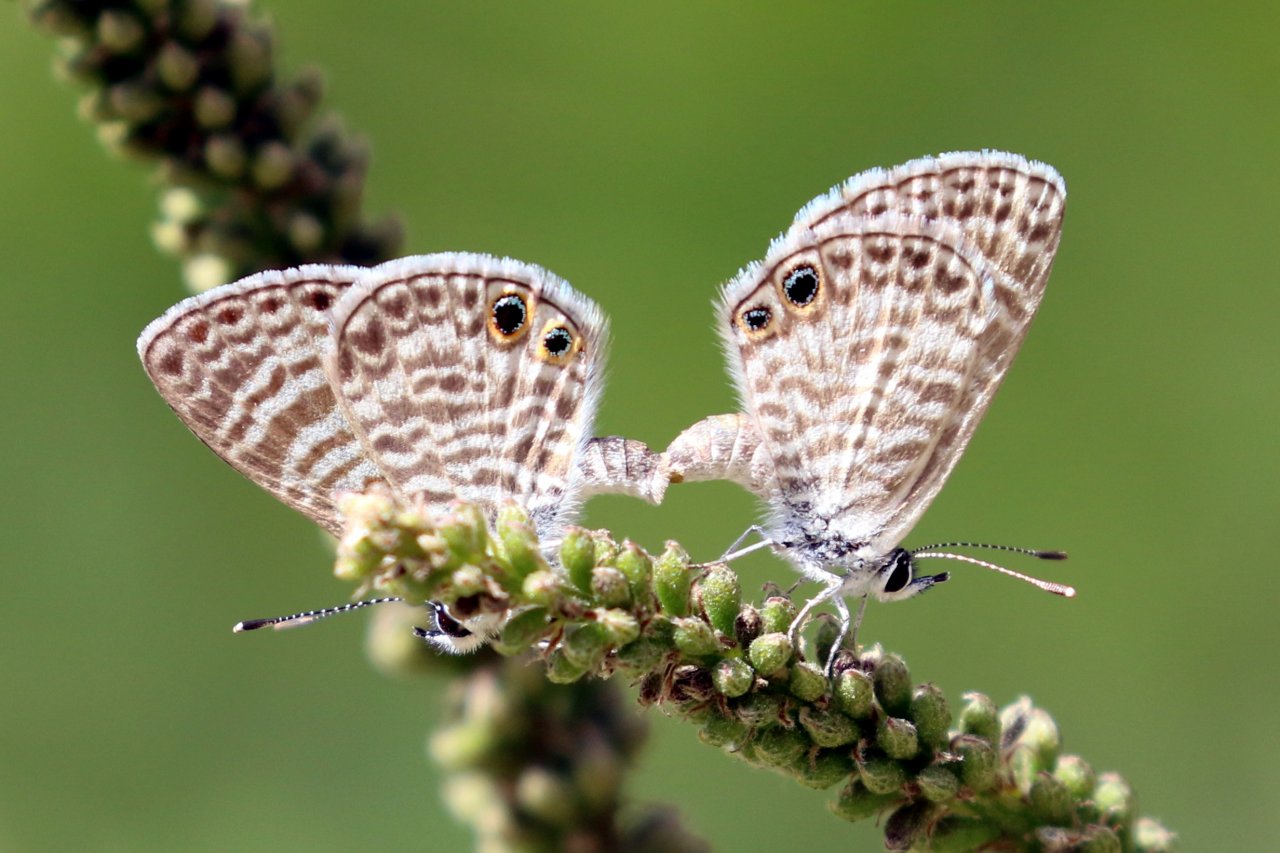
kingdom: Animalia
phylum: Arthropoda
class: Insecta
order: Lepidoptera
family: Lycaenidae
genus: Leptotes
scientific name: Leptotes marina
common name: Marine Blue
